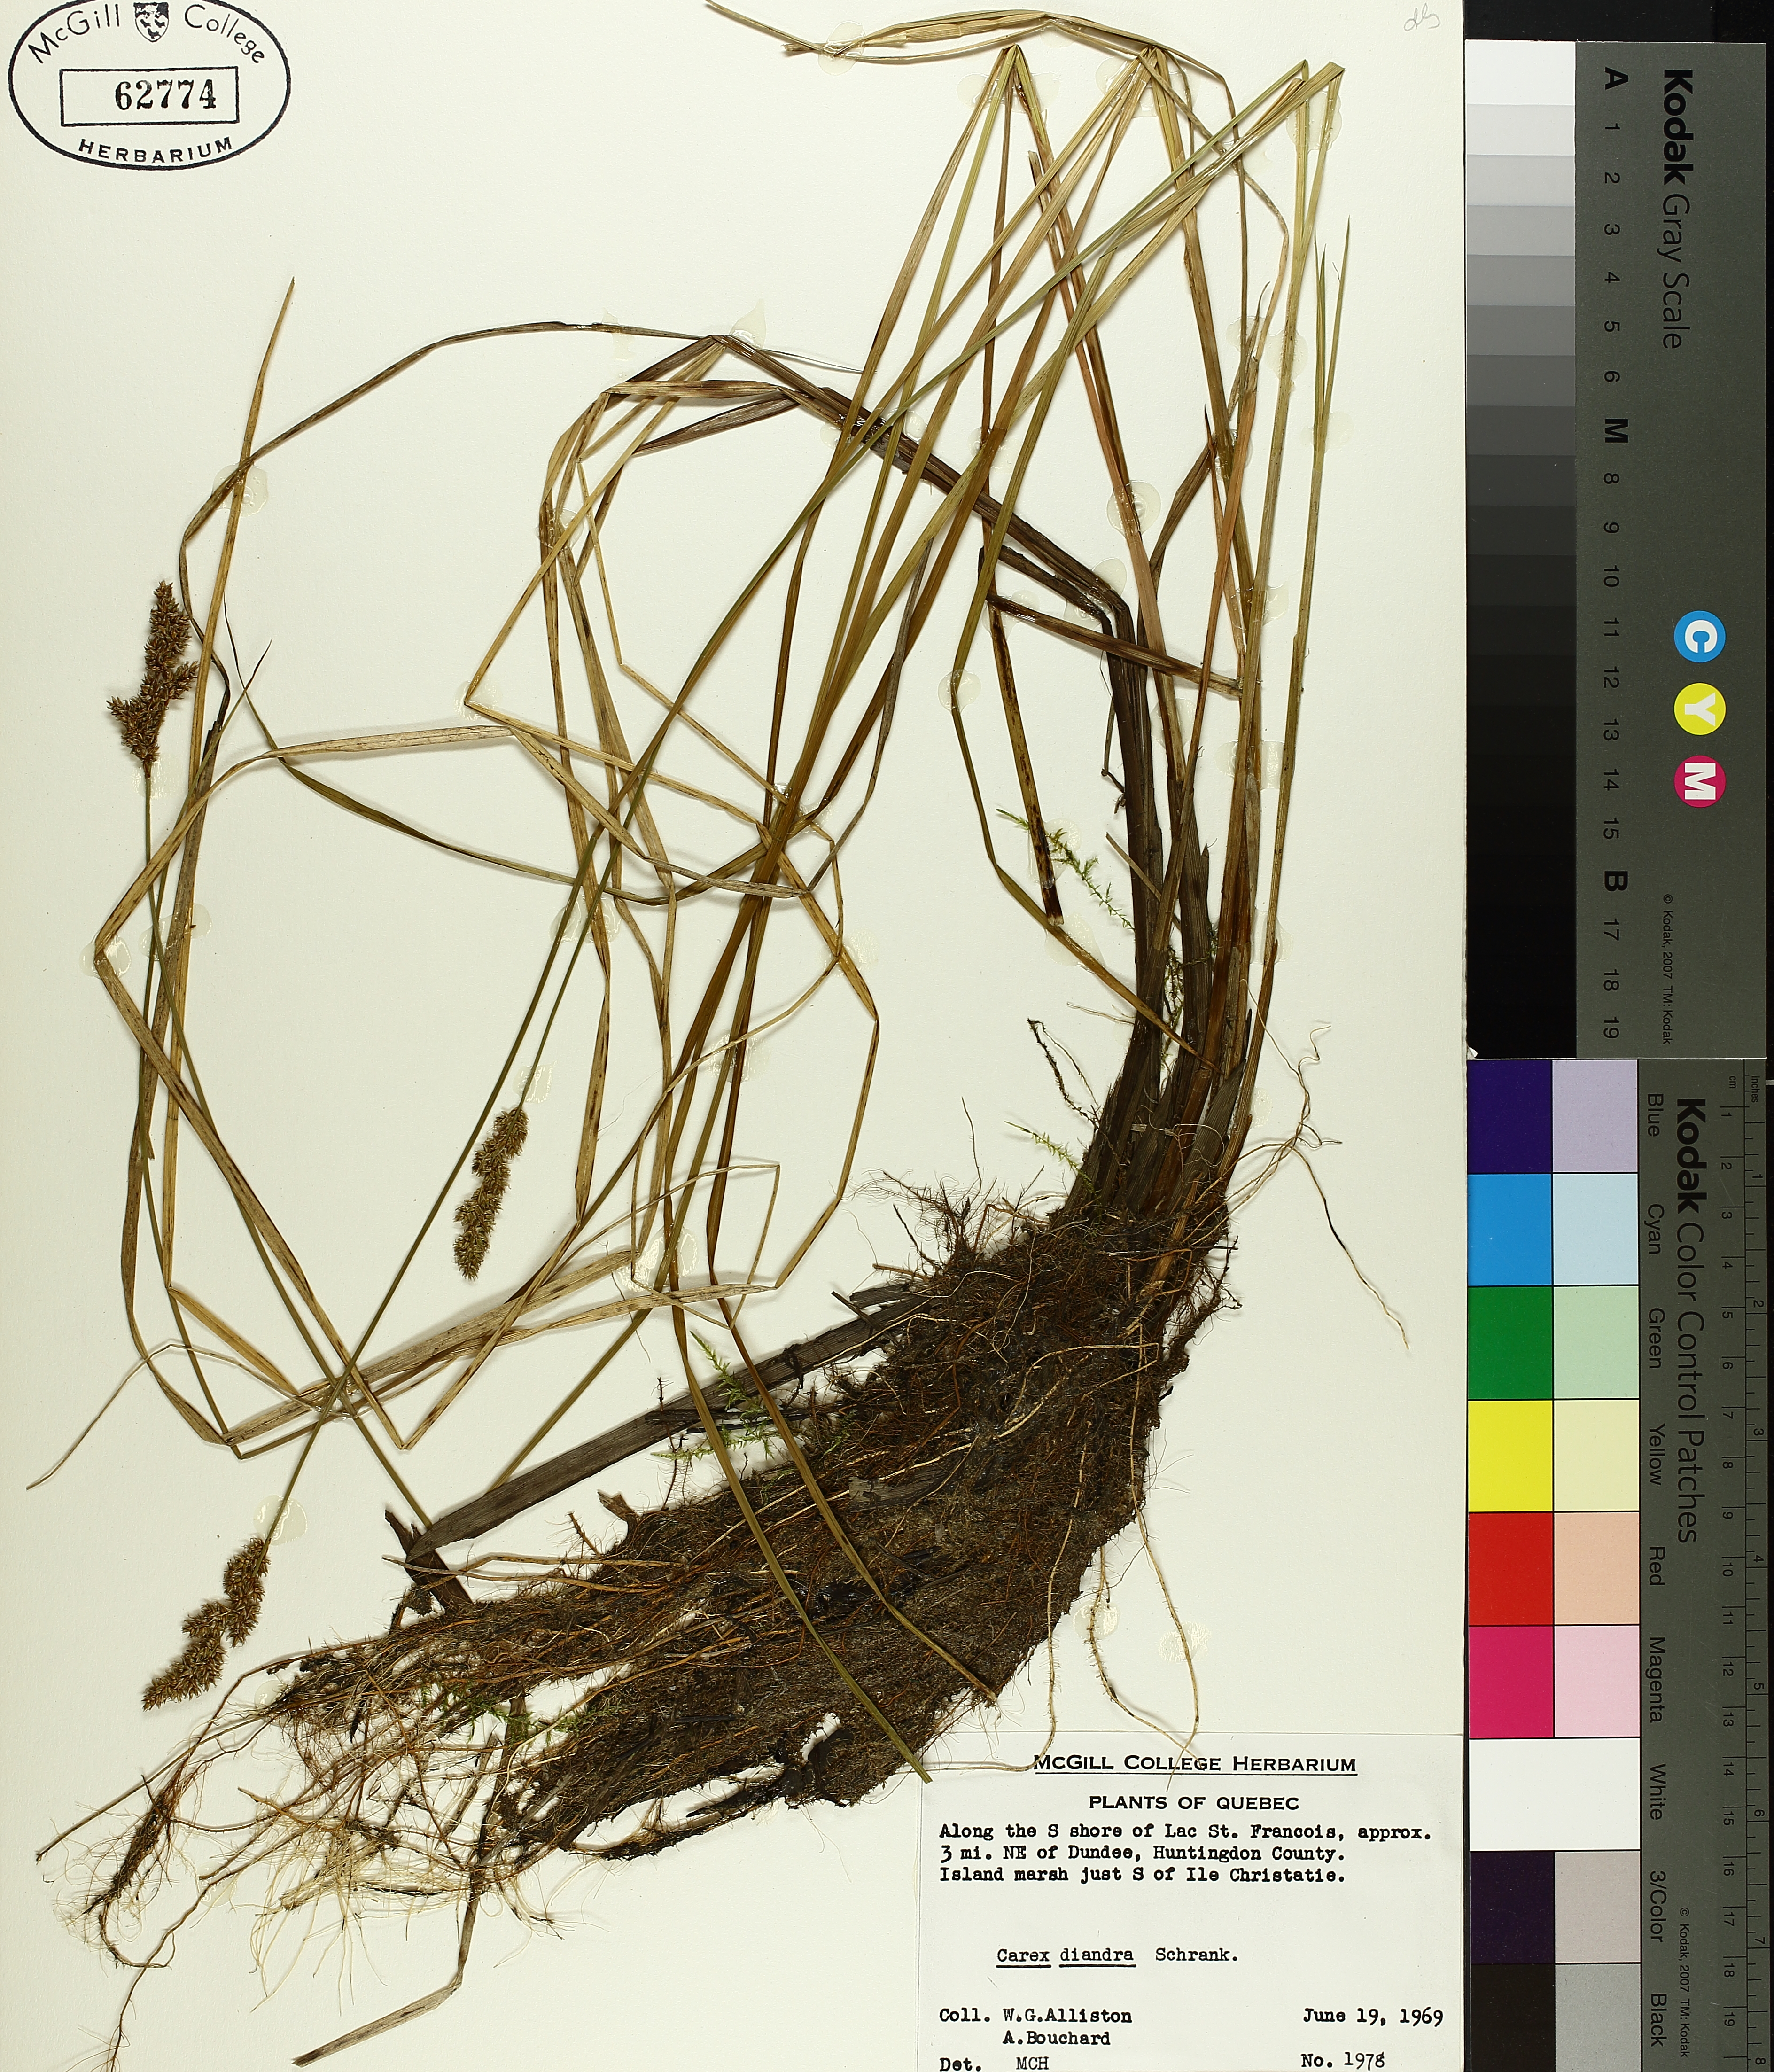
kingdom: Plantae
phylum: Tracheophyta
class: Liliopsida
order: Poales
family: Cyperaceae
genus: Carex
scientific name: Carex diandra
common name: Lesser tussock-sedge
